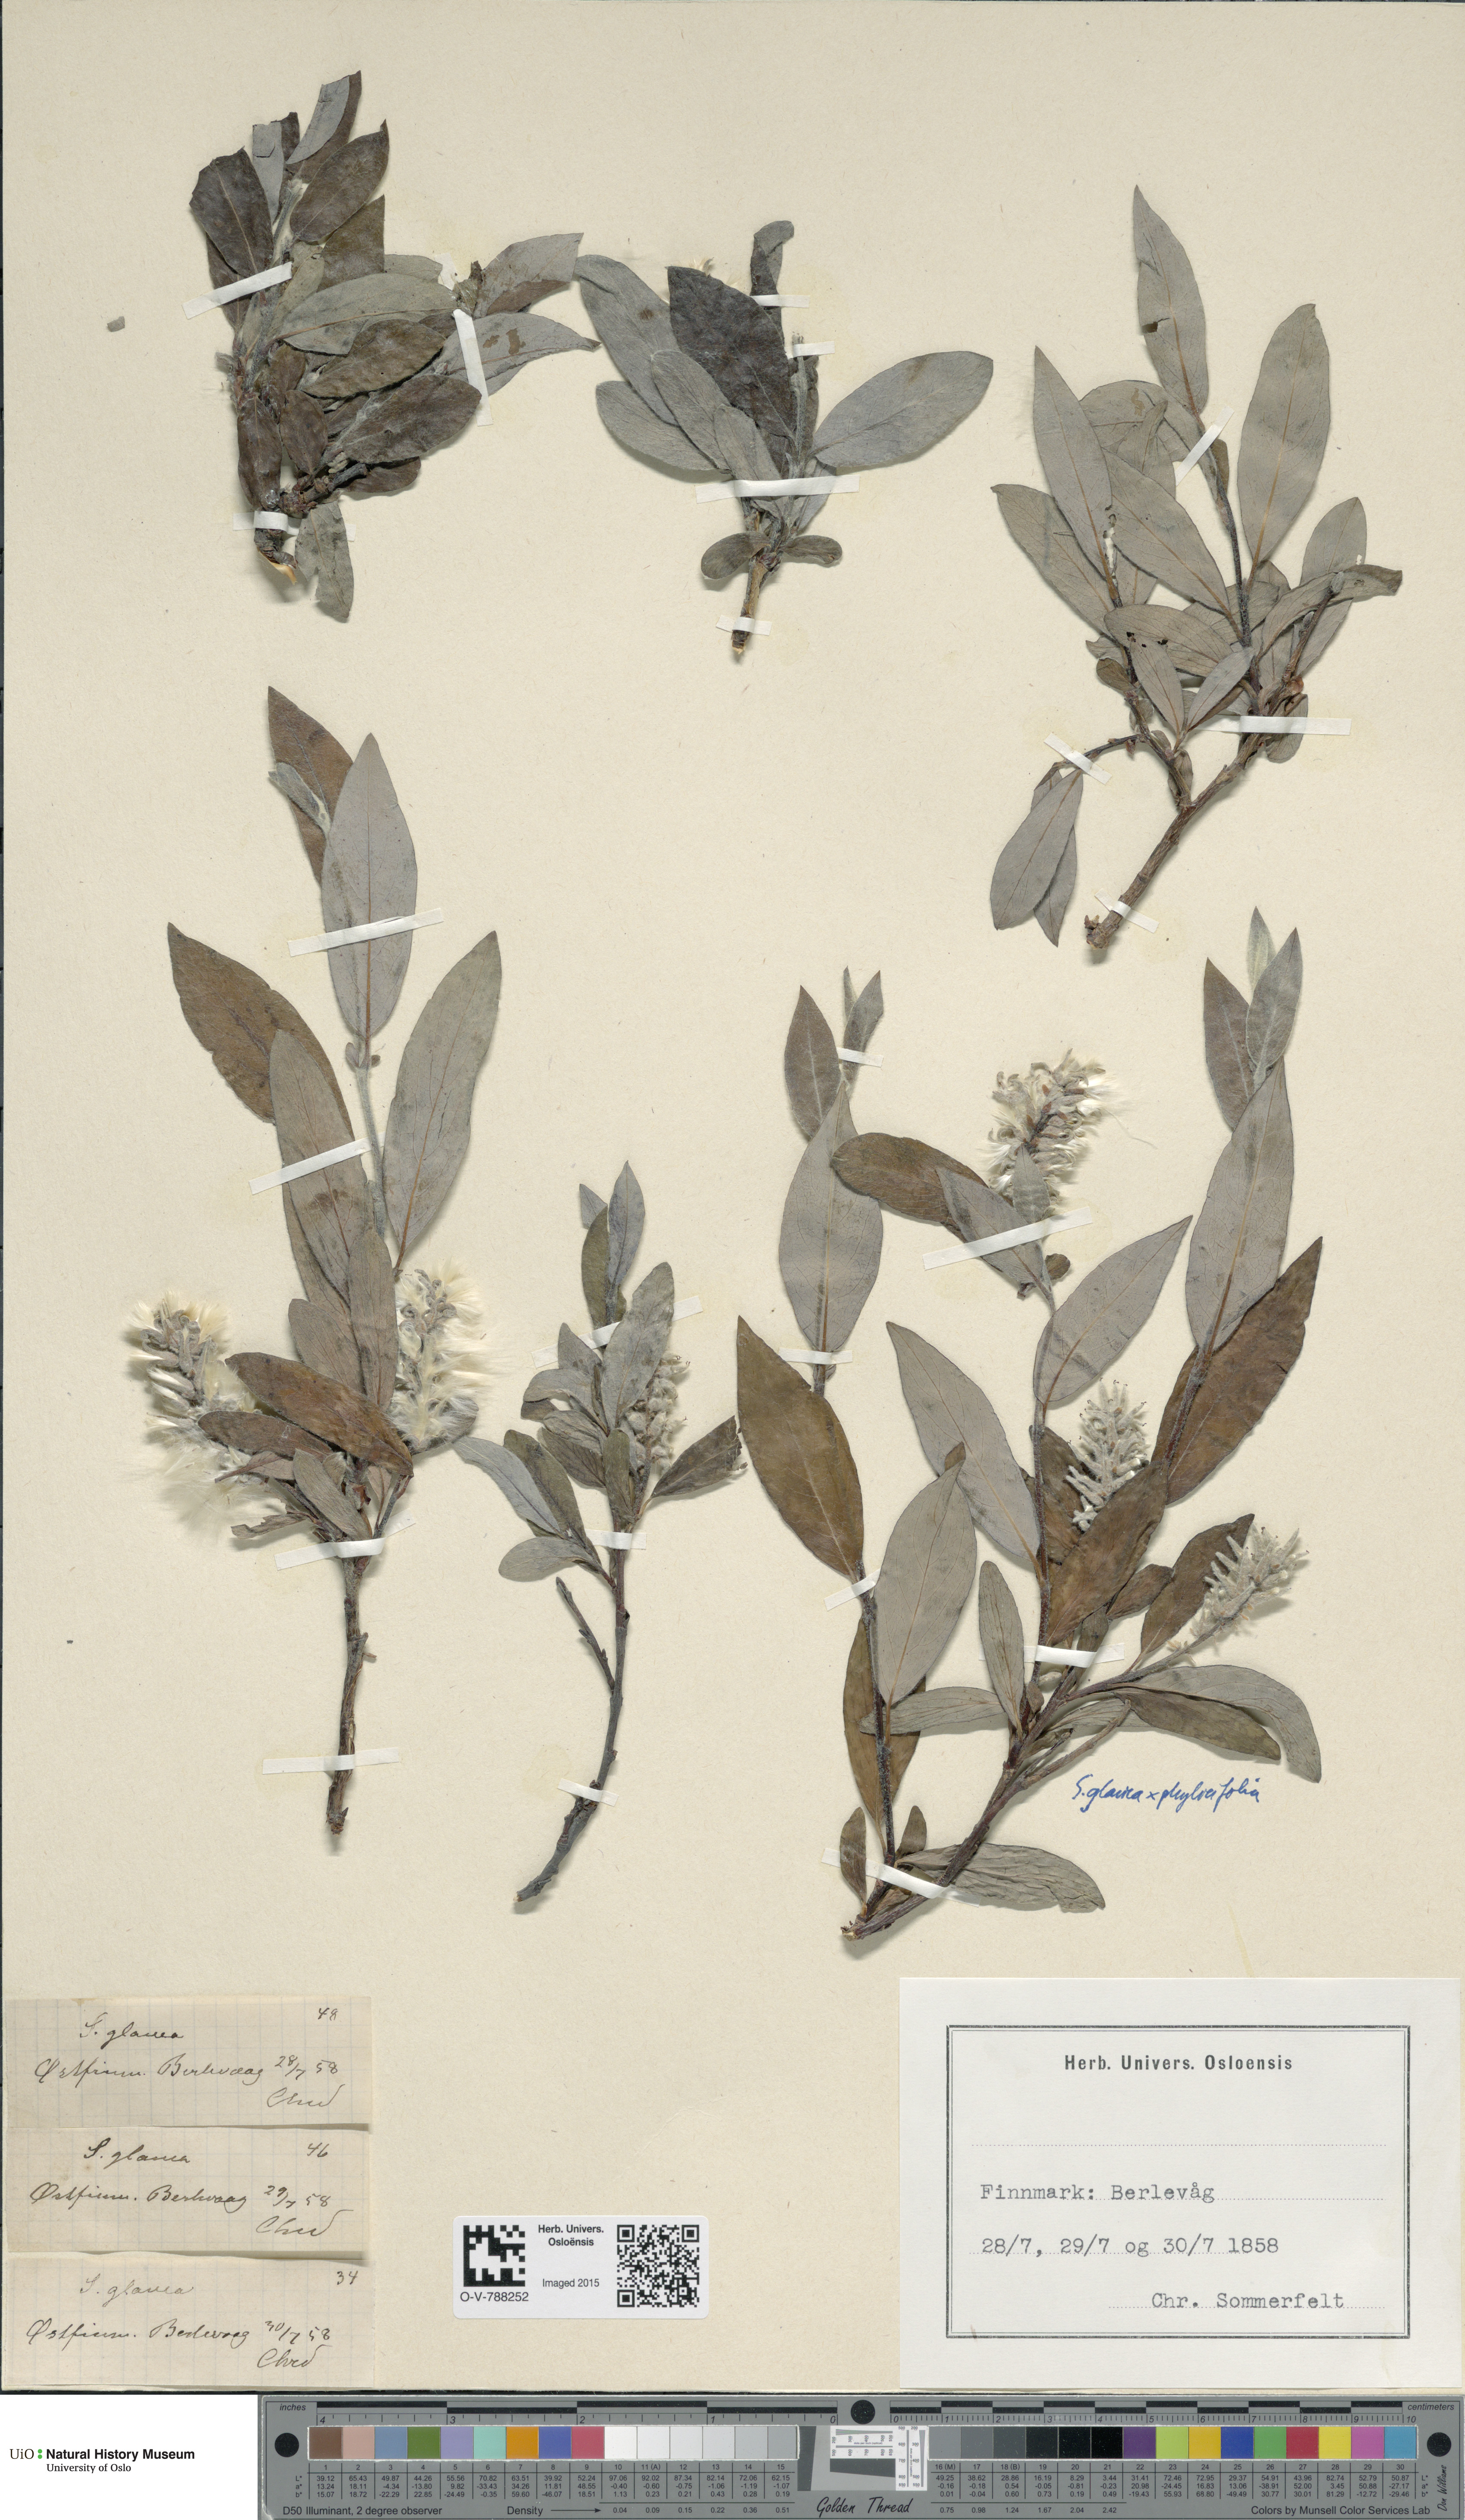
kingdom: Plantae
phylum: Tracheophyta
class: Magnoliopsida
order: Malpighiales
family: Salicaceae
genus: Salix
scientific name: Salix glauca
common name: Glaucous willow
